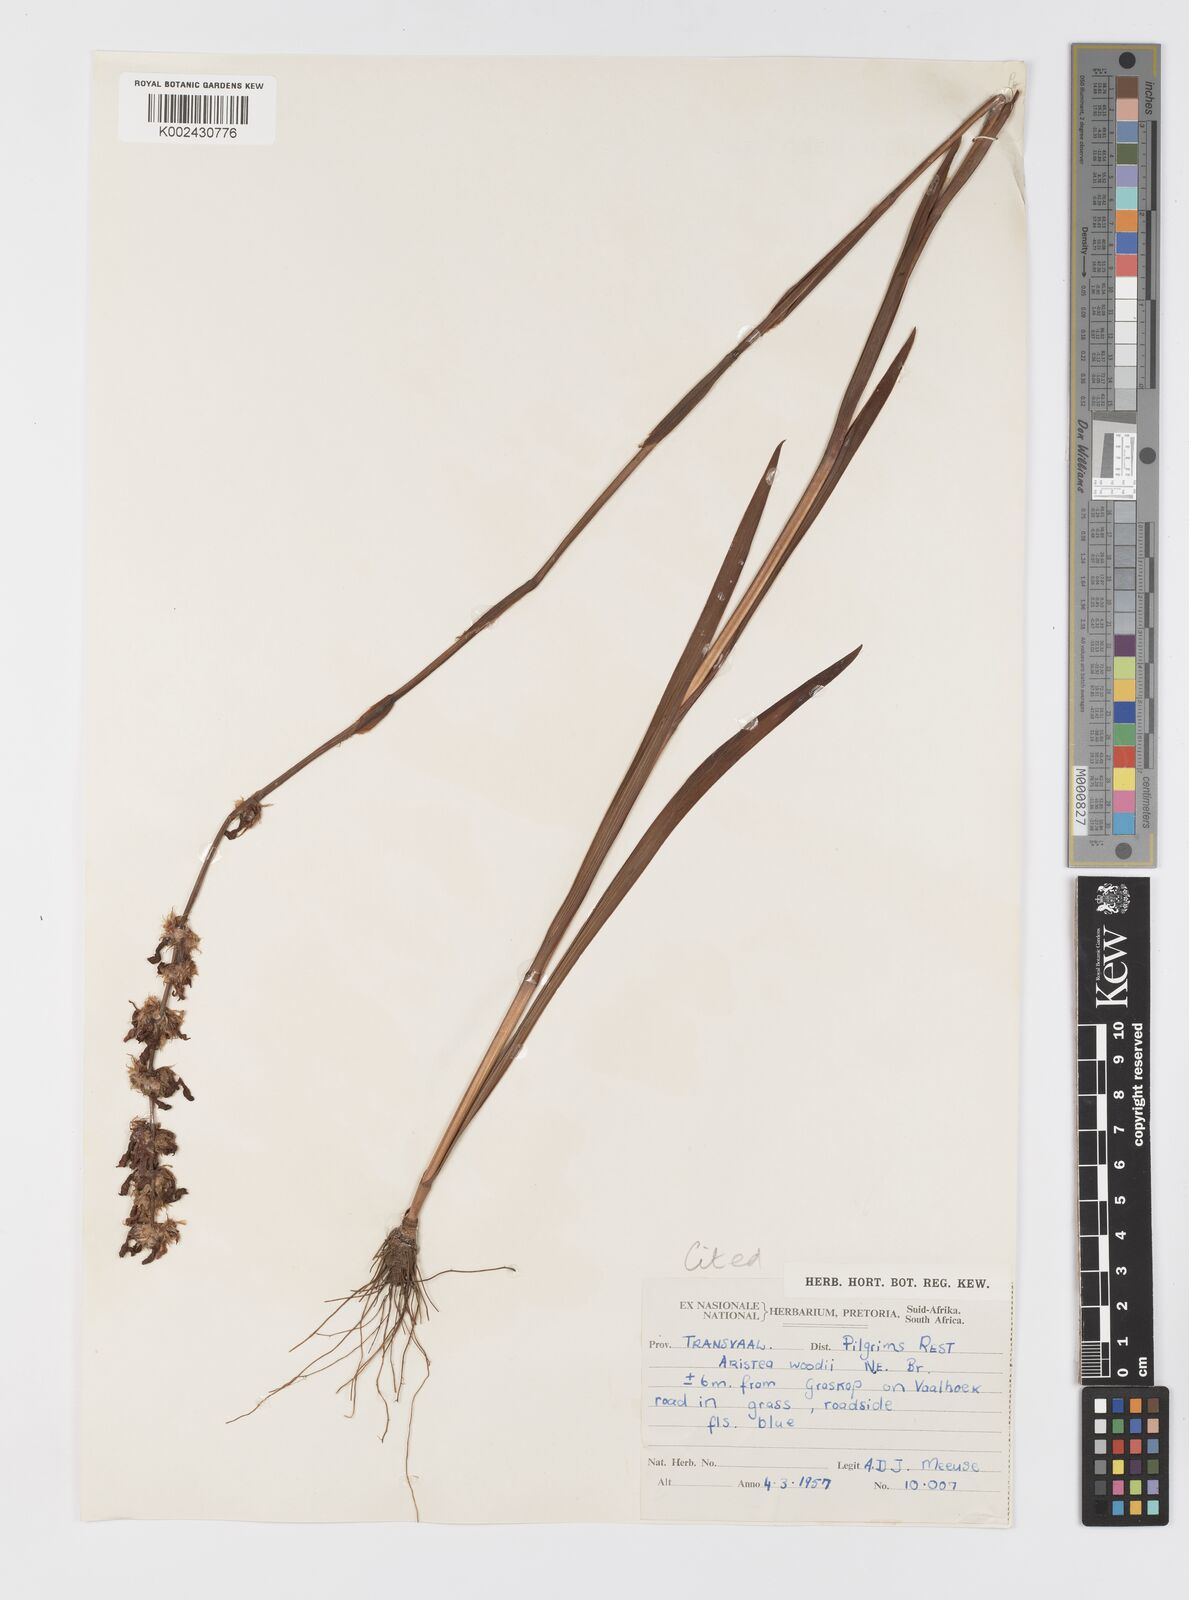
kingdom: Plantae
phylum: Tracheophyta
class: Liliopsida
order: Asparagales
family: Iridaceae
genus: Aristea
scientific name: Aristea torulosa
